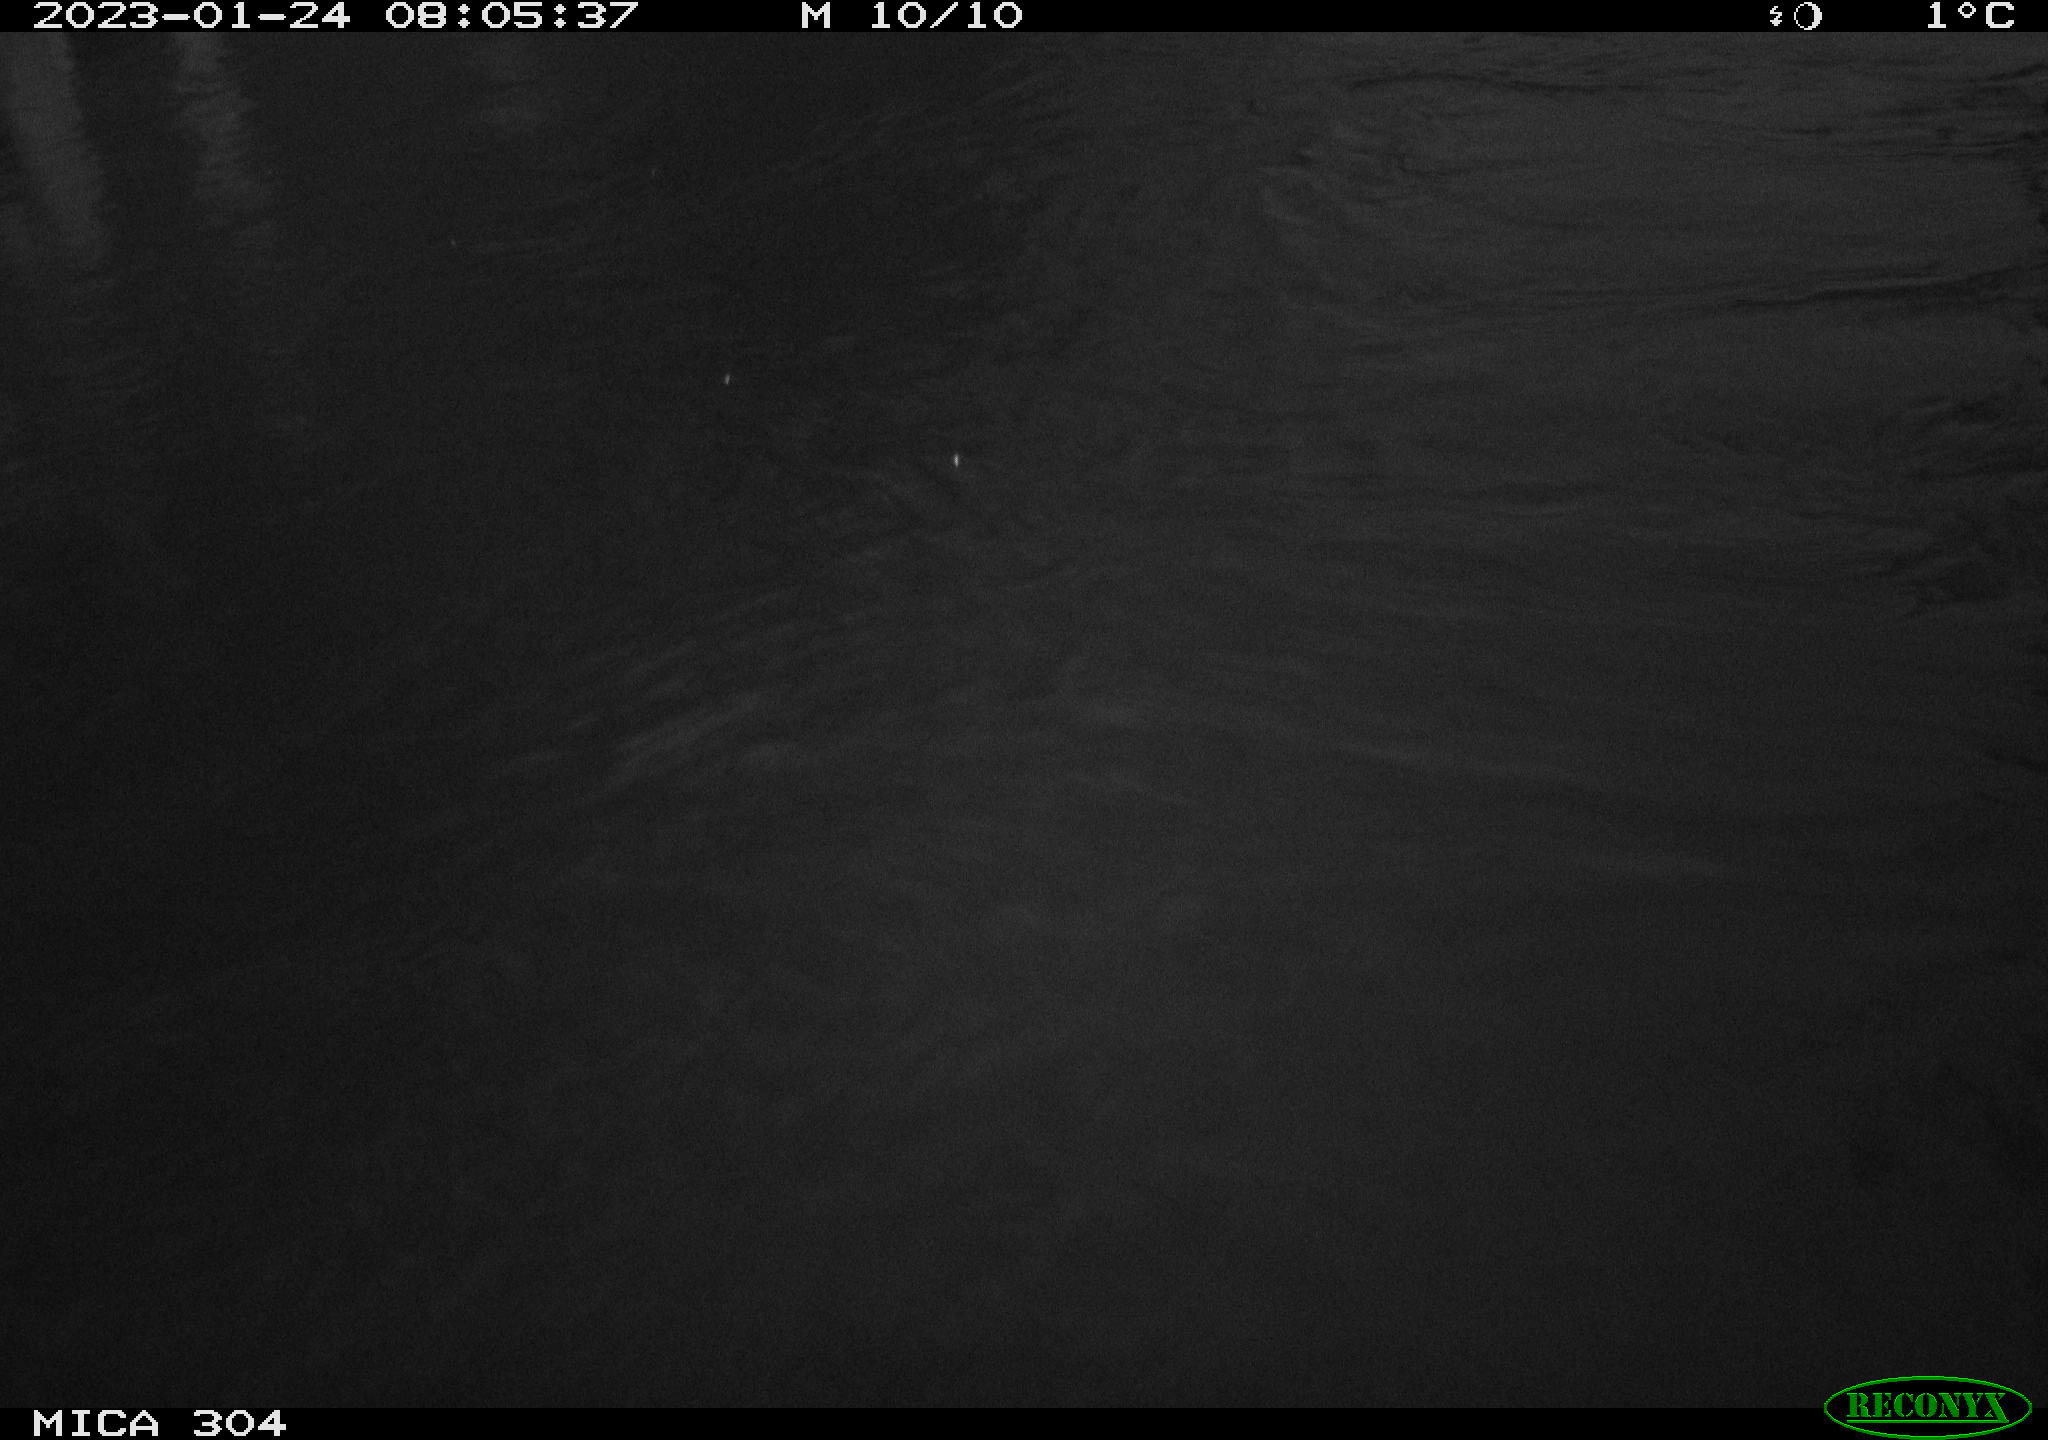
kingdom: Animalia
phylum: Chordata
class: Aves
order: Anseriformes
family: Anatidae
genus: Anas
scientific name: Anas
